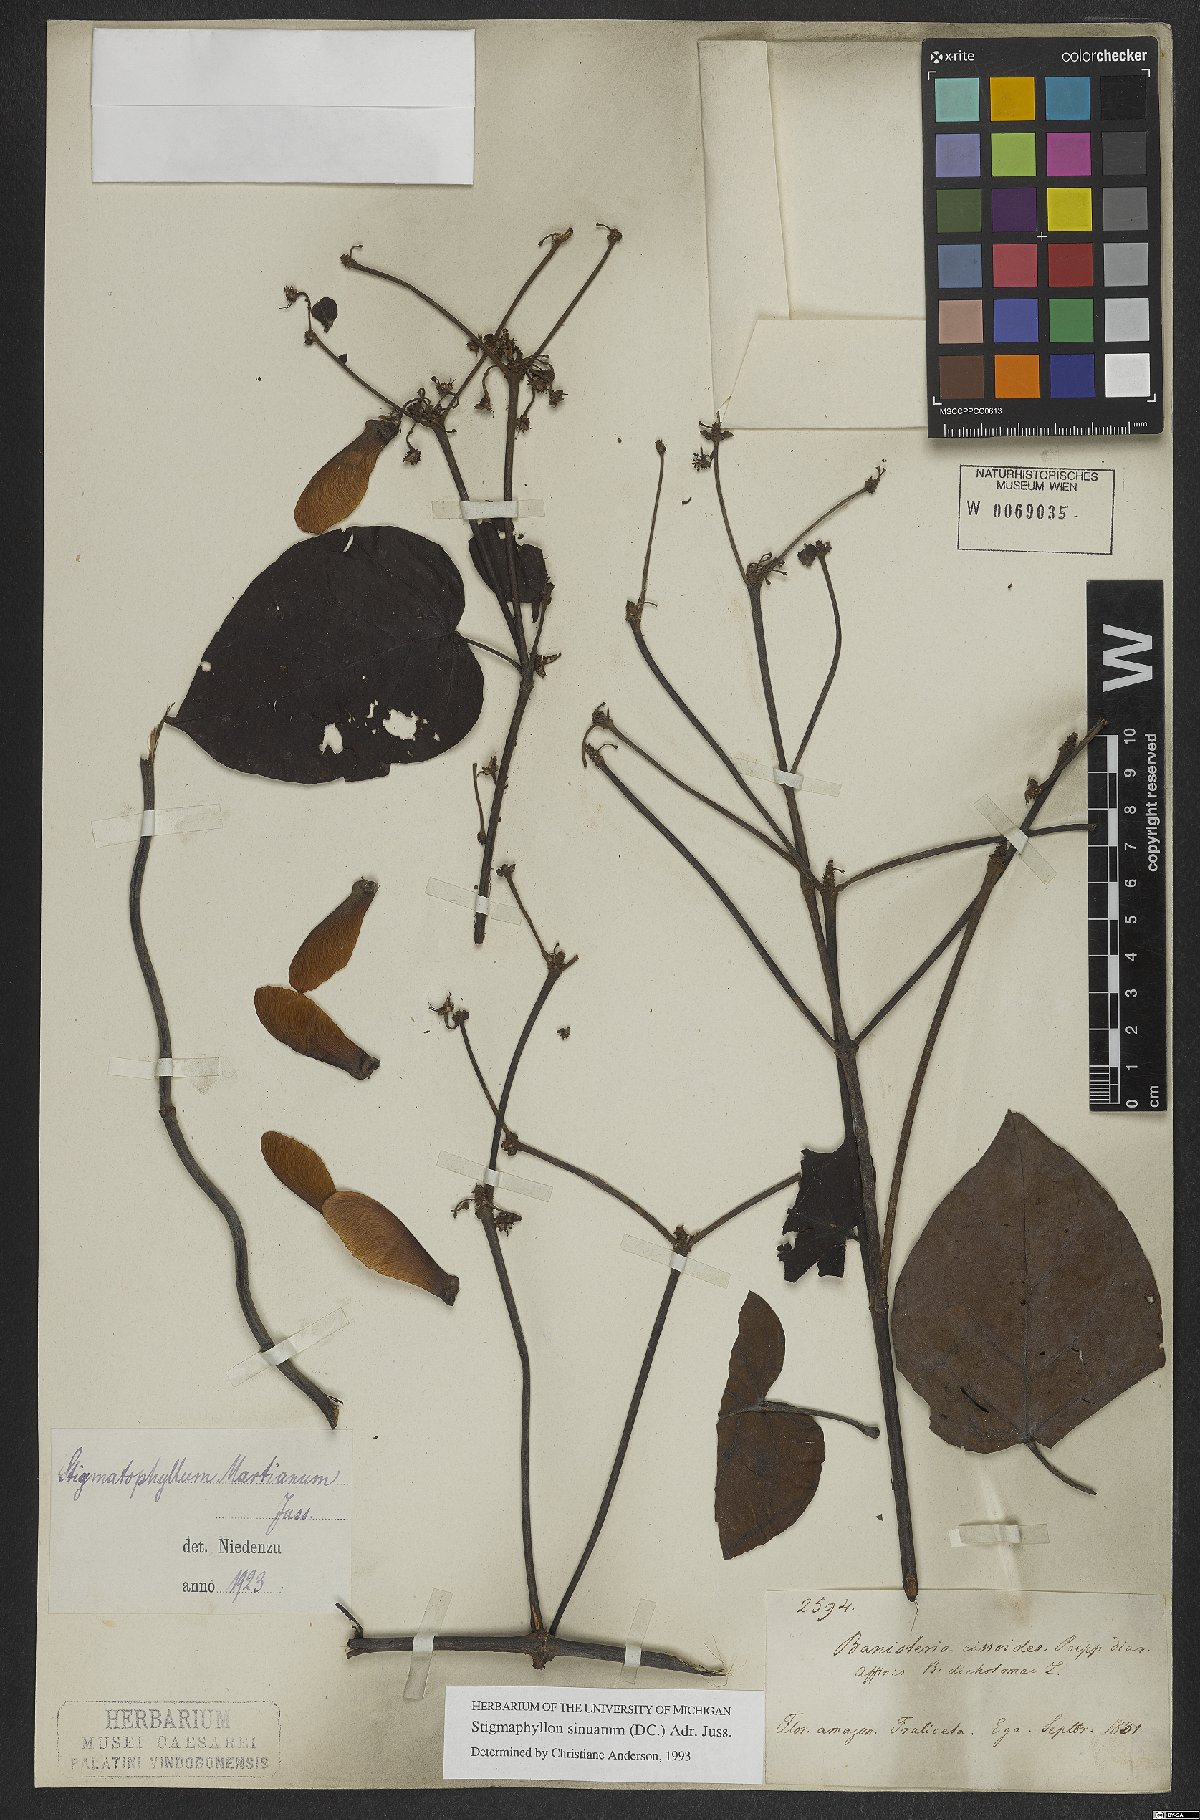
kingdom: Plantae
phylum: Tracheophyta
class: Magnoliopsida
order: Malpighiales
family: Malpighiaceae
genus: Stigmaphyllon
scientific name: Stigmaphyllon sinuatum
